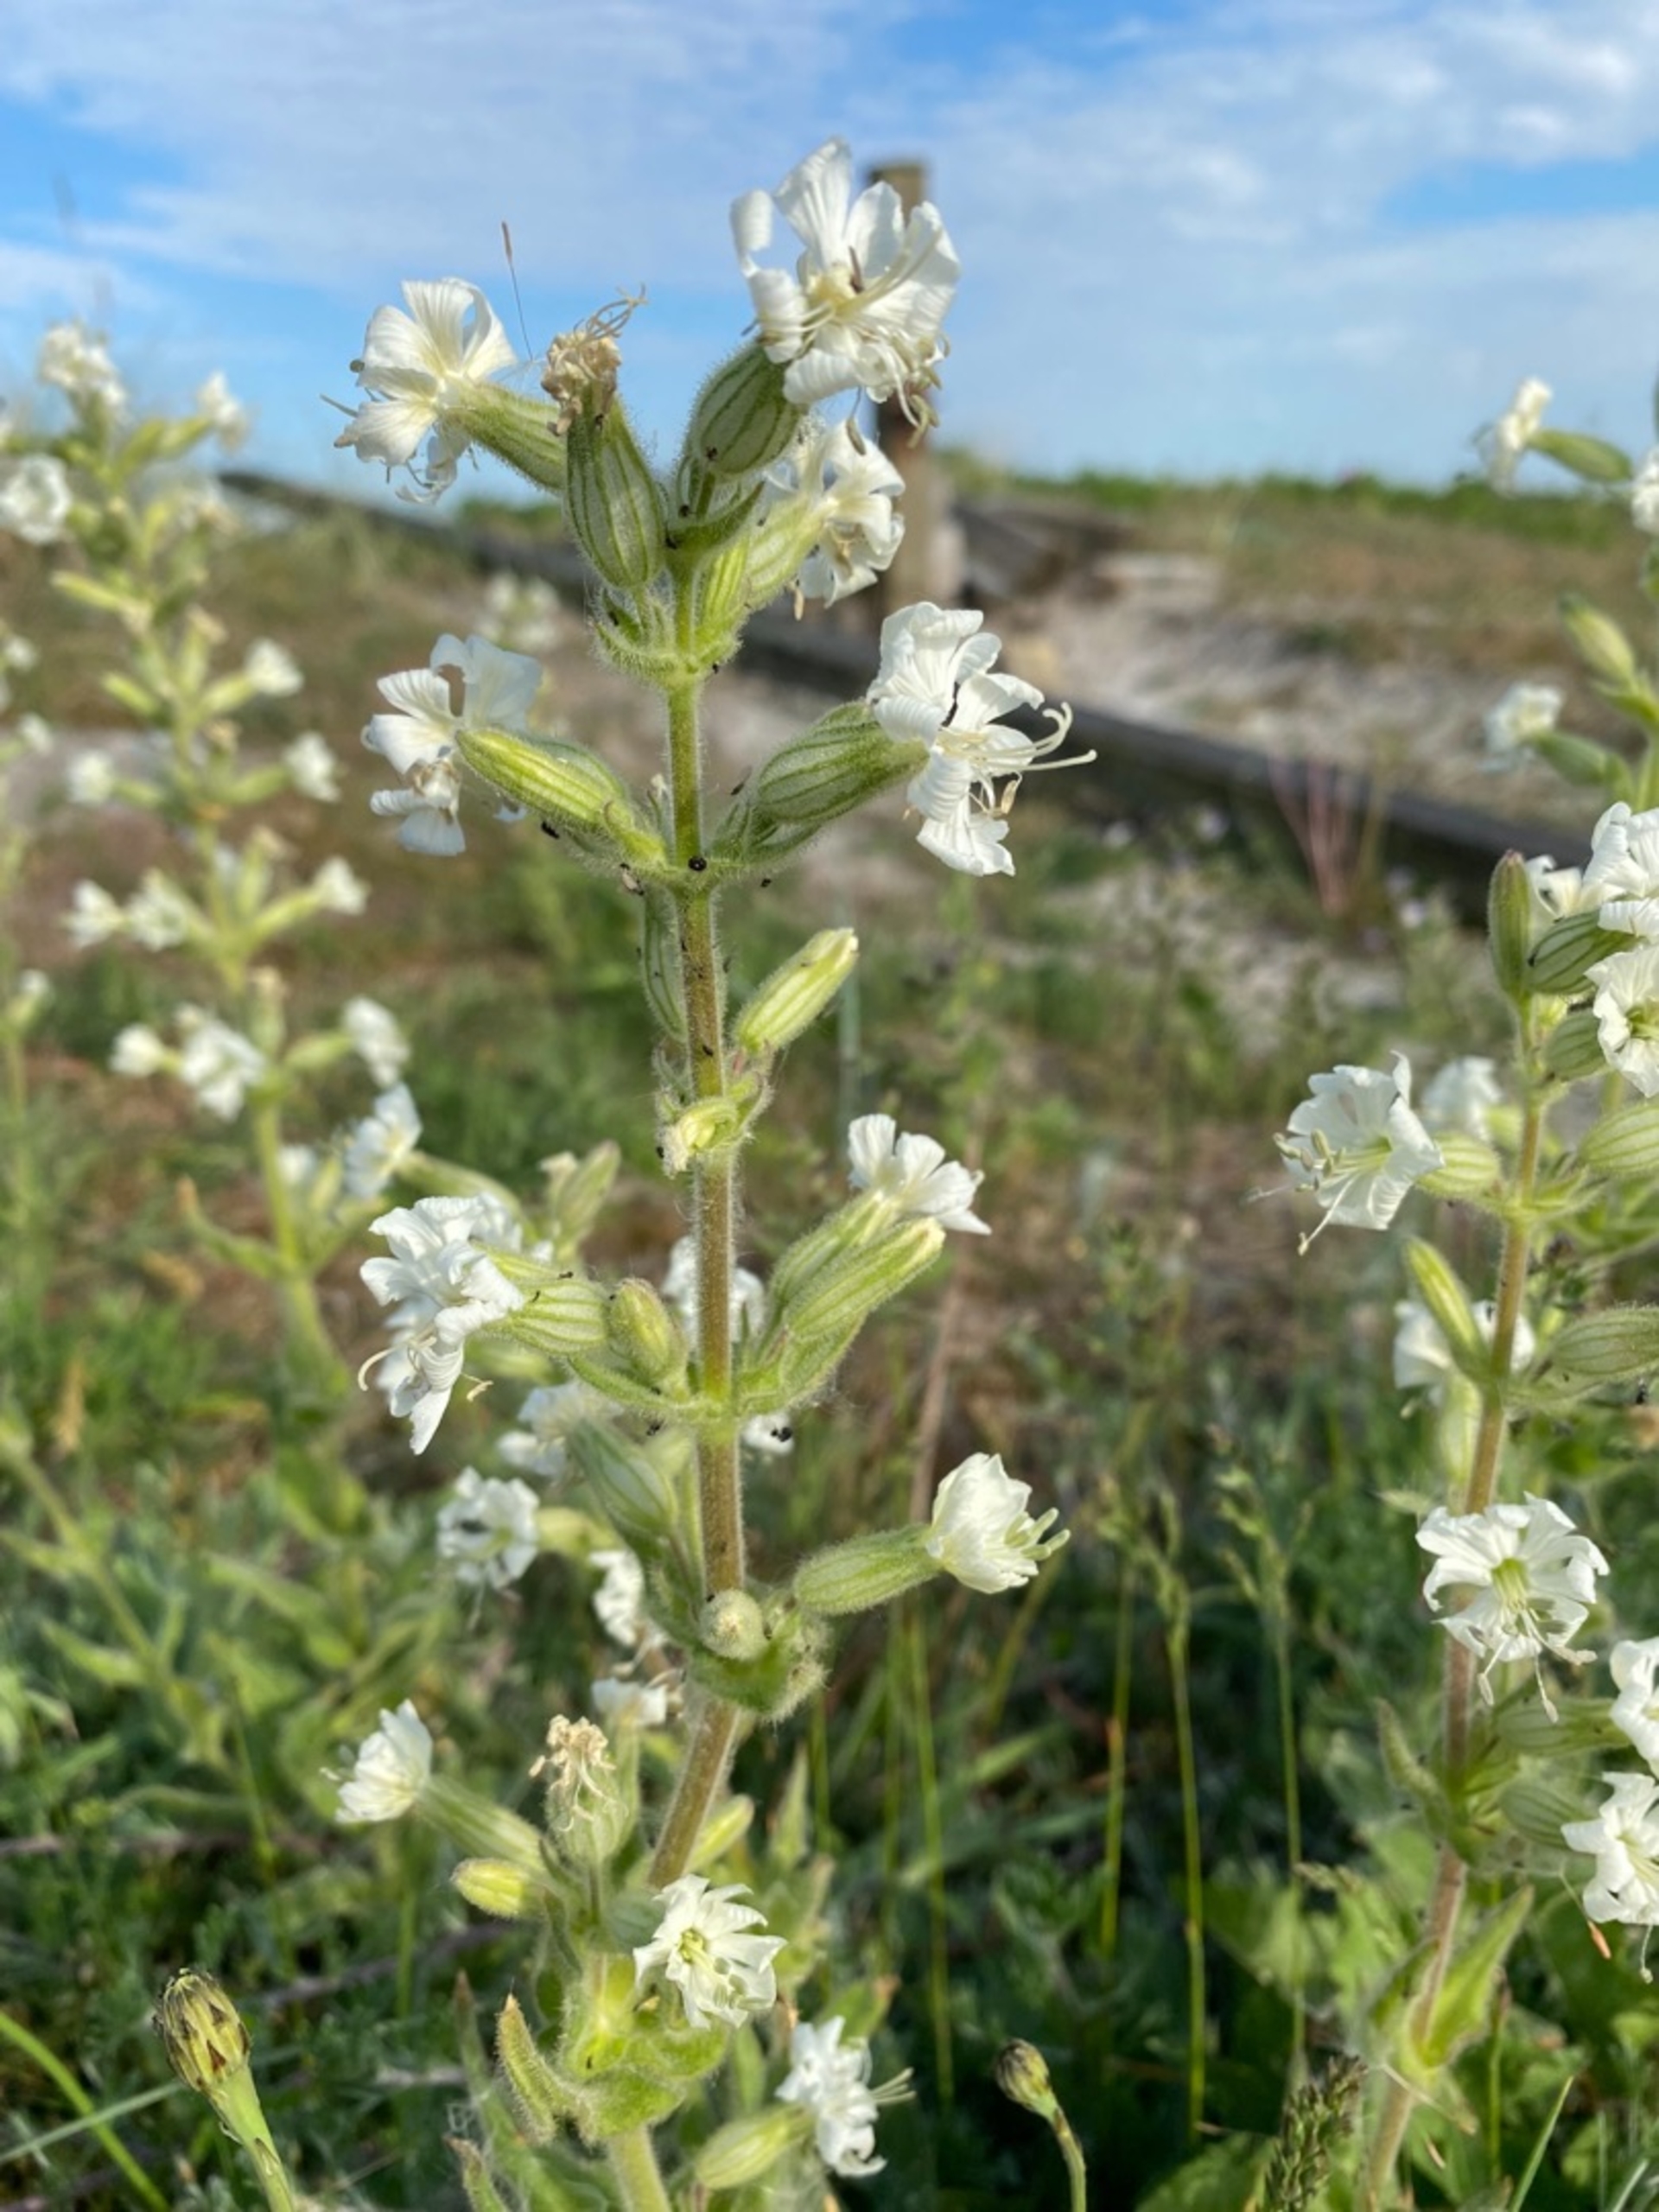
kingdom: Plantae
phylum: Tracheophyta
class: Magnoliopsida
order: Caryophyllales
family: Caryophyllaceae
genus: Silene
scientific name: Silene viscosa
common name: Klæbrig limurt
